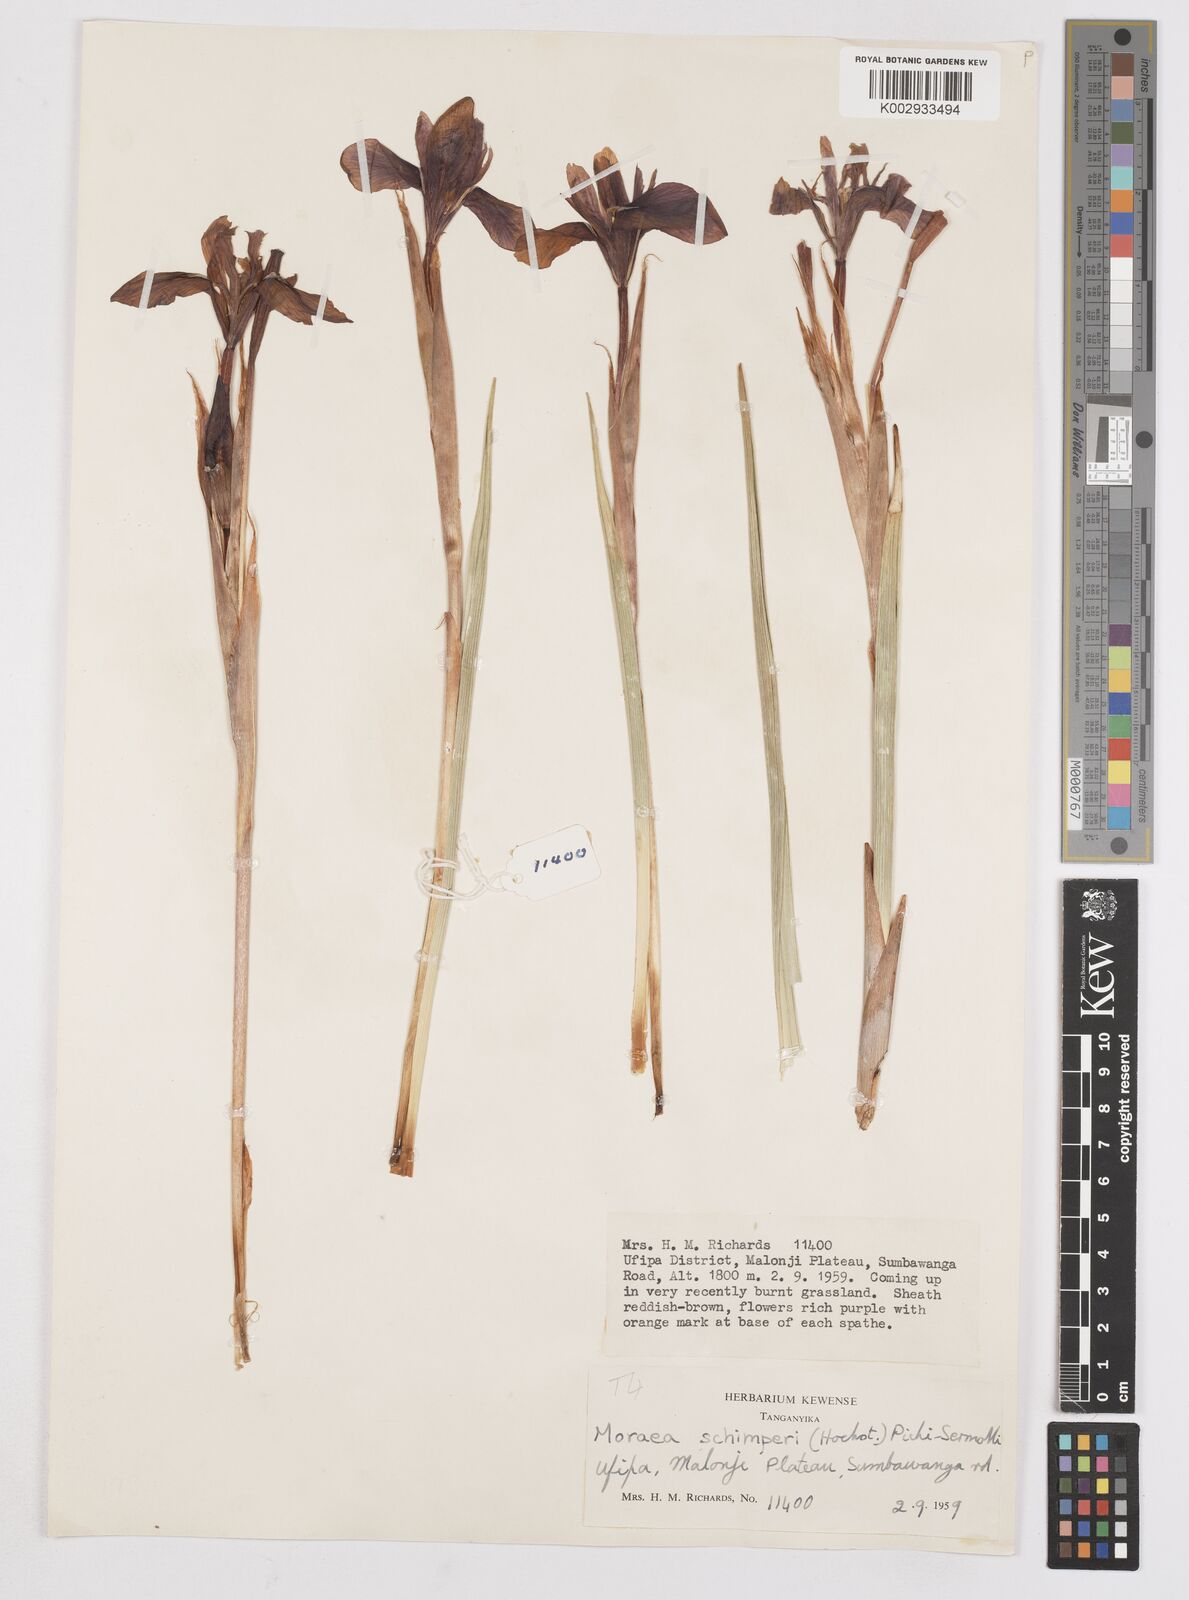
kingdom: Plantae
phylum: Tracheophyta
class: Liliopsida
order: Asparagales
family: Iridaceae
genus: Moraea
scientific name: Moraea schimperi
